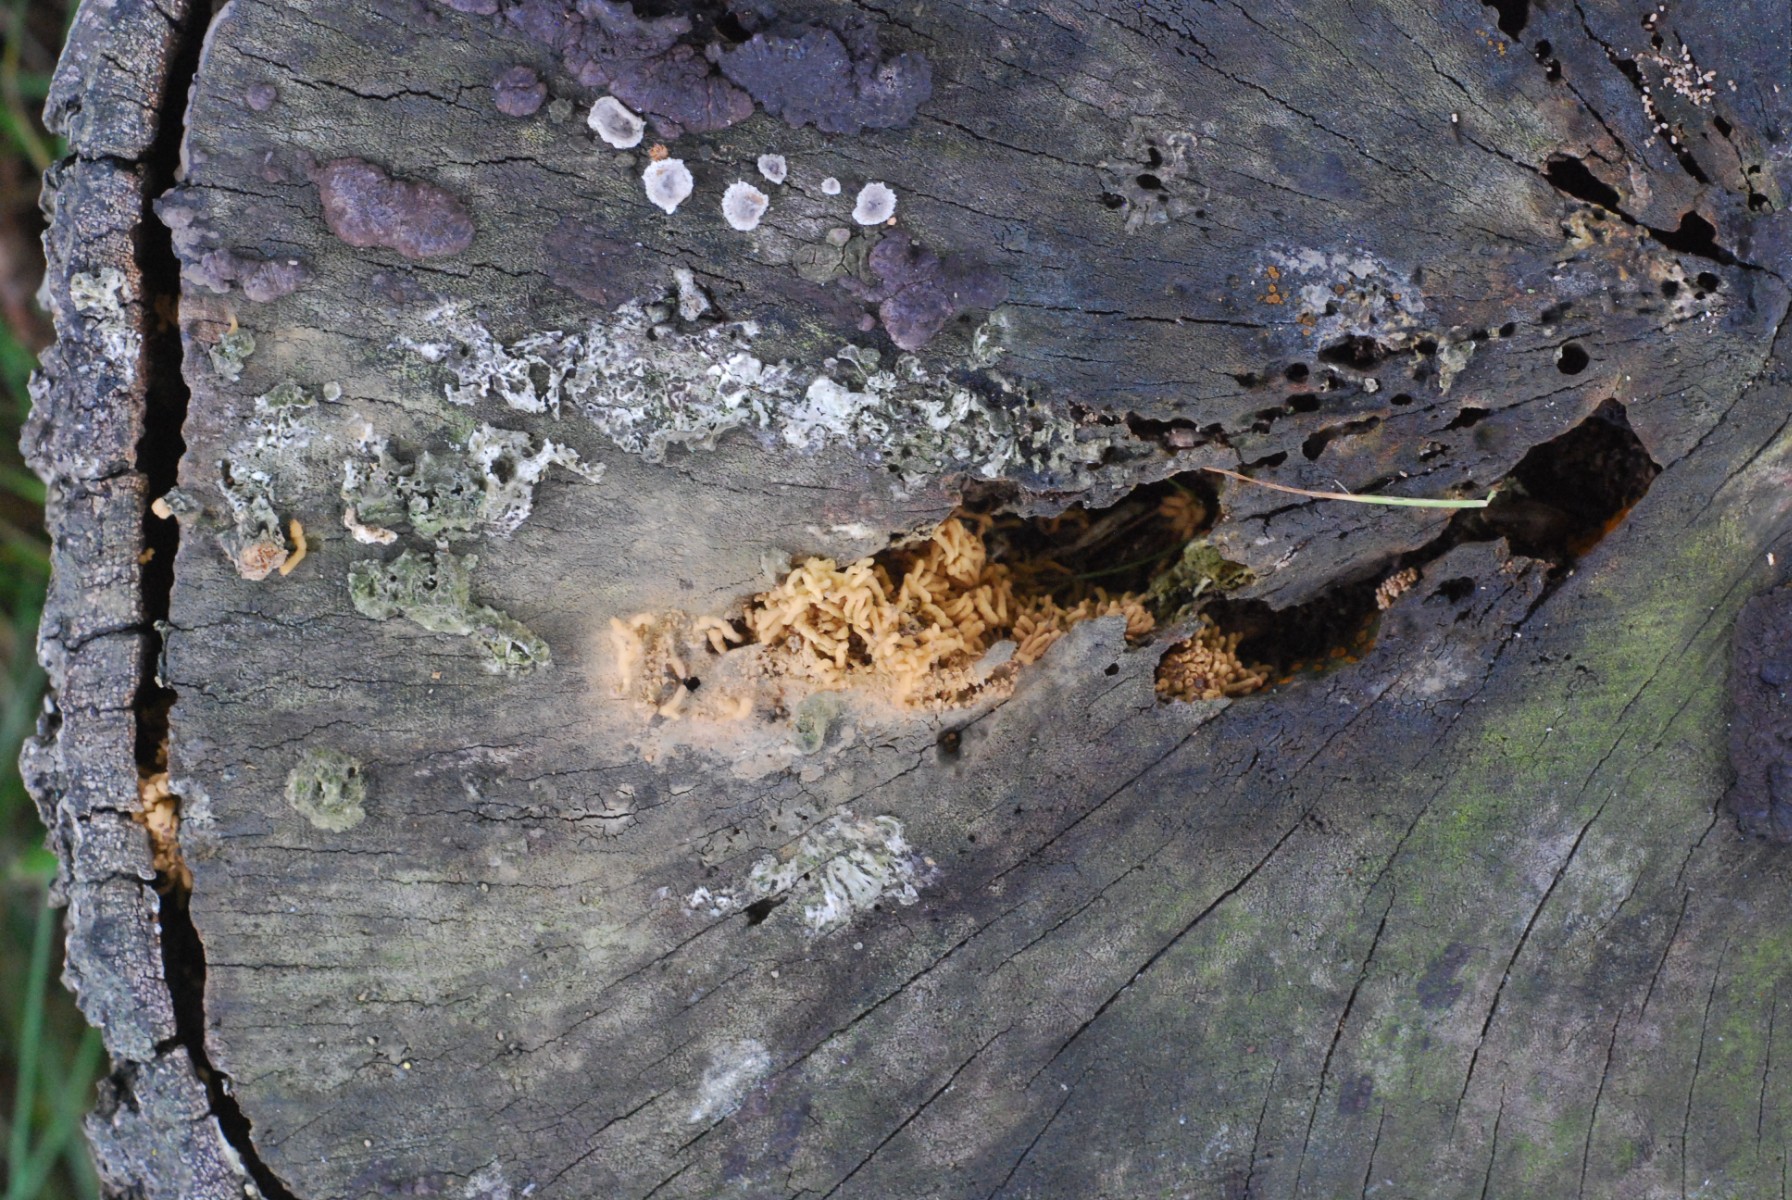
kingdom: Protozoa
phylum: Mycetozoa
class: Myxomycetes
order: Trichiales
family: Arcyriaceae
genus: Arcyria
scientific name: Arcyria obvelata
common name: okkergul skålsvøb
